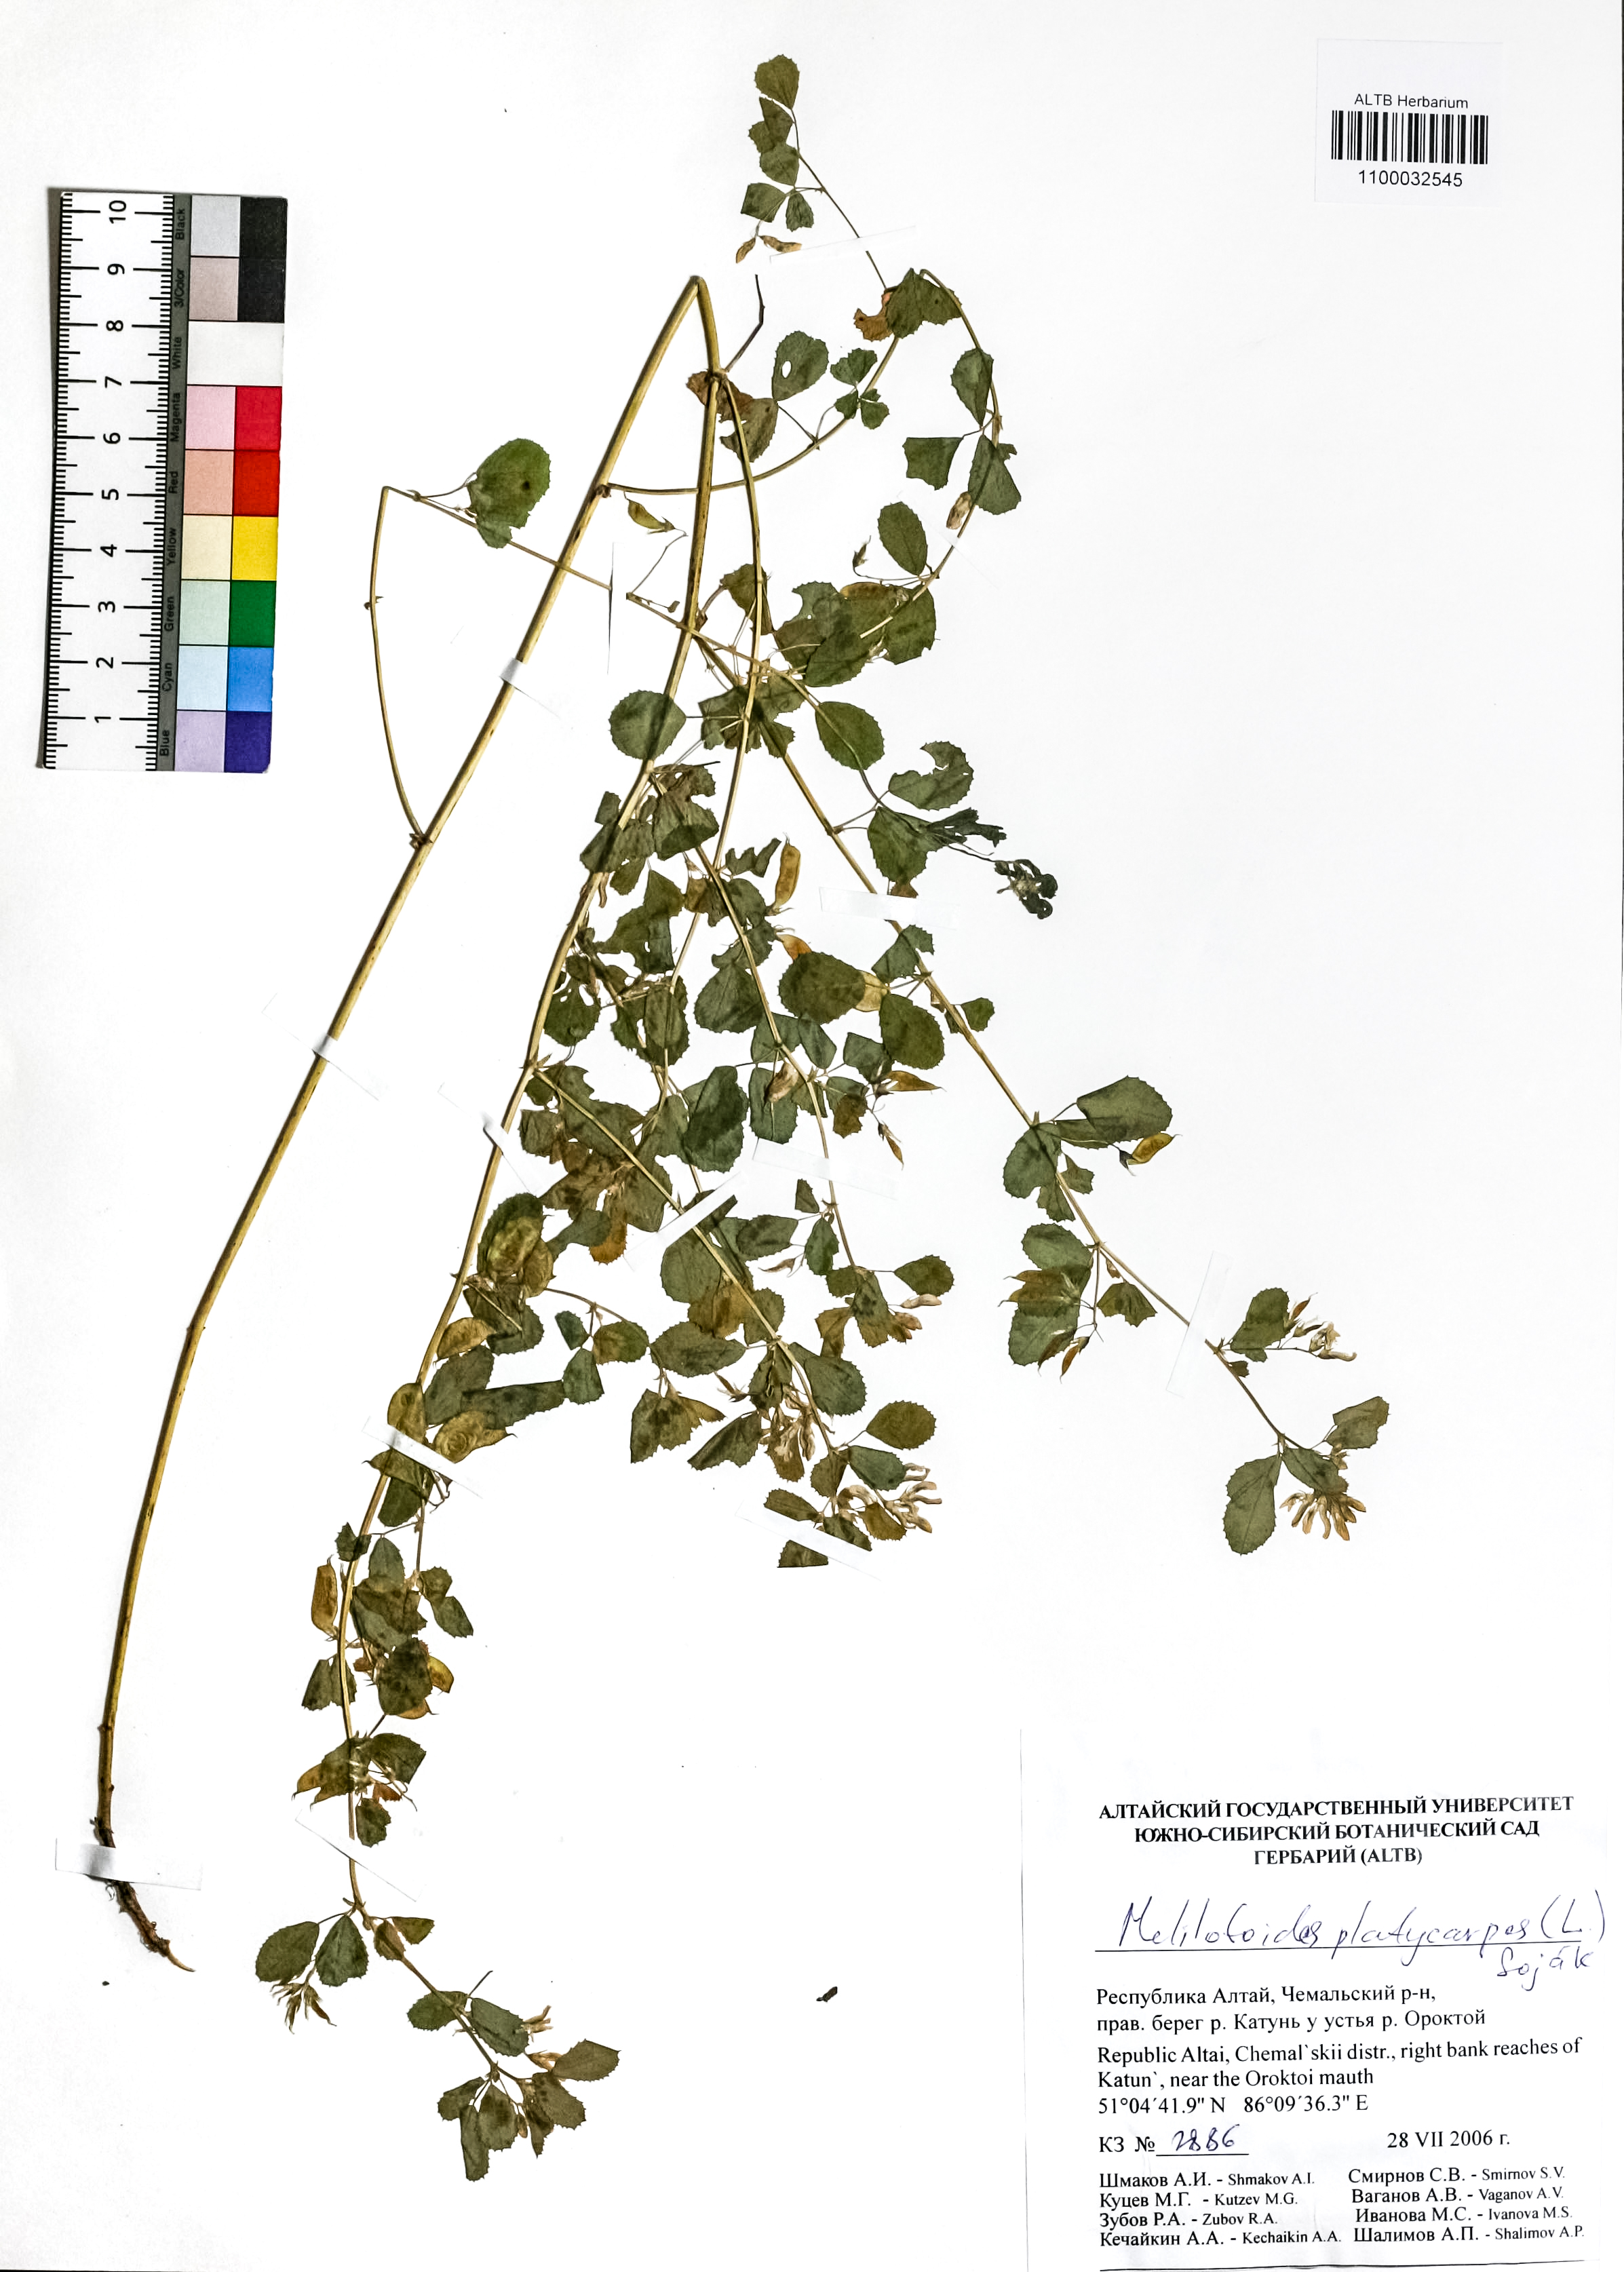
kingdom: Plantae
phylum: Tracheophyta
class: Magnoliopsida
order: Fabales
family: Fabaceae
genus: Medicago
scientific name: Medicago platycarpos
